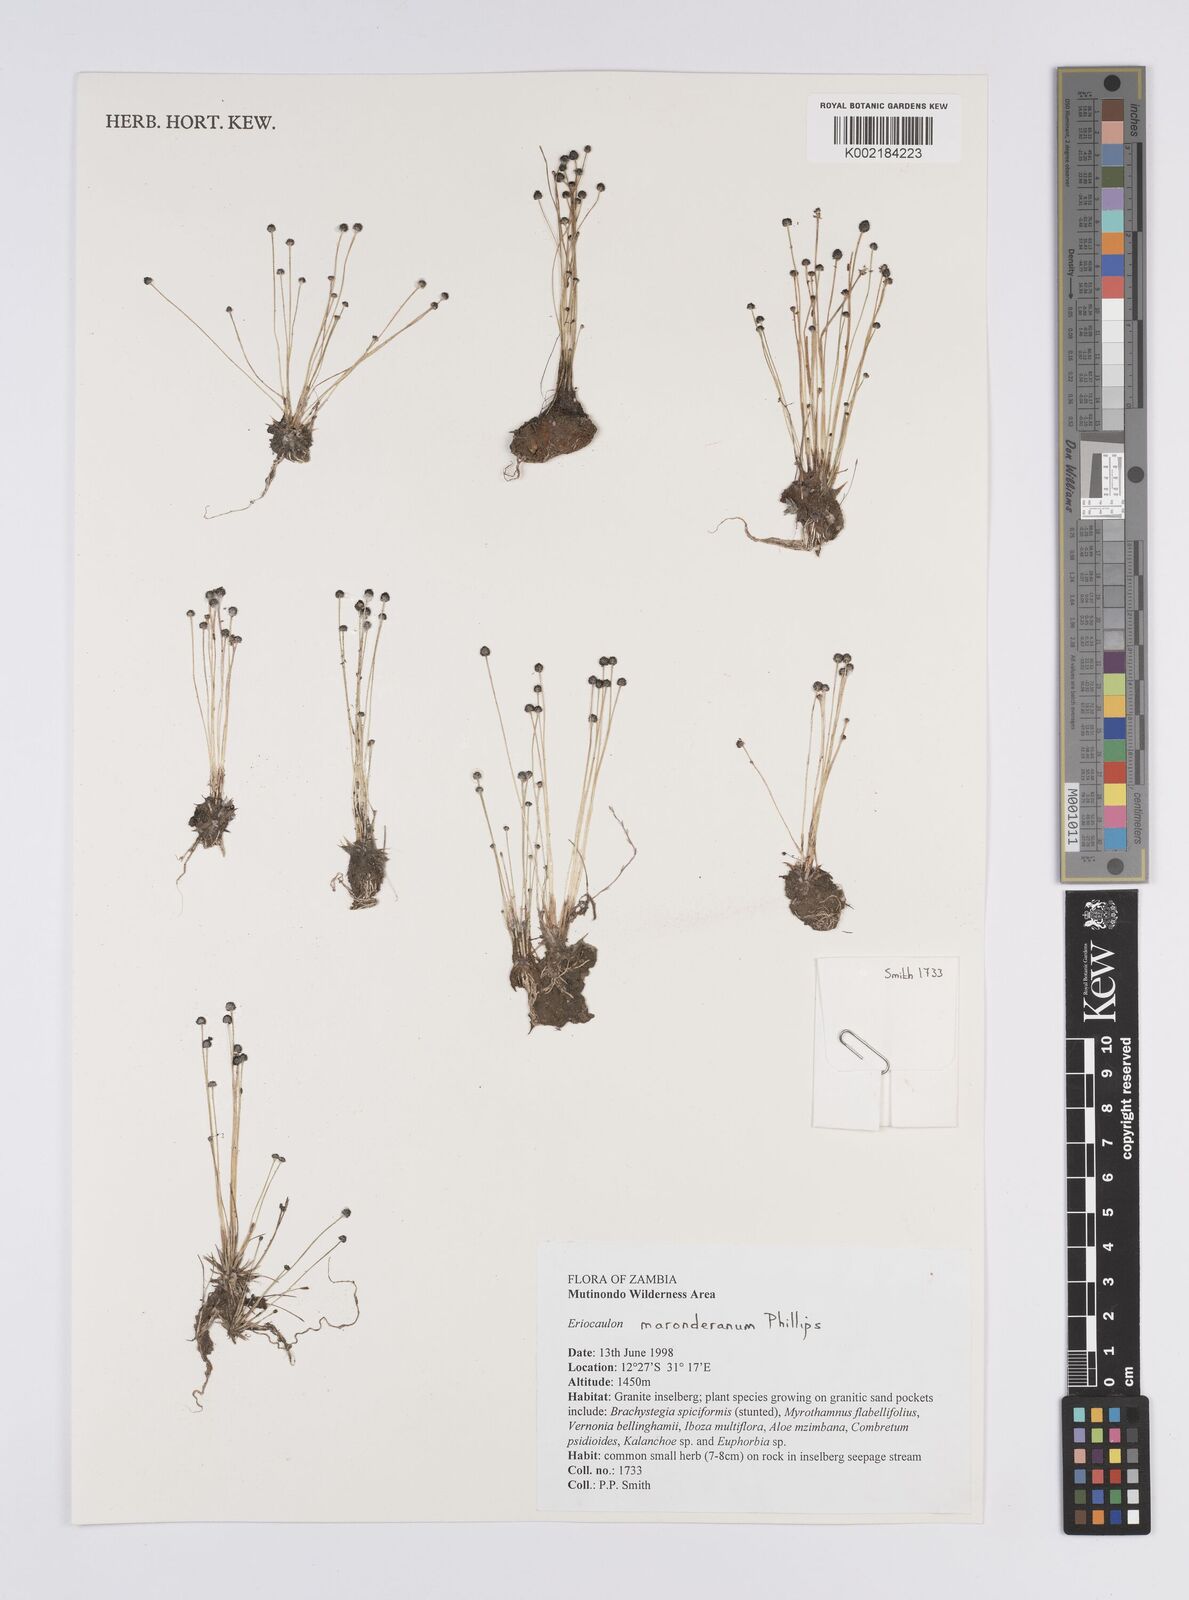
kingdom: Plantae
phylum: Tracheophyta
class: Liliopsida
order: Poales
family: Eriocaulaceae
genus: Eriocaulon
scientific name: Eriocaulon maronderanum
